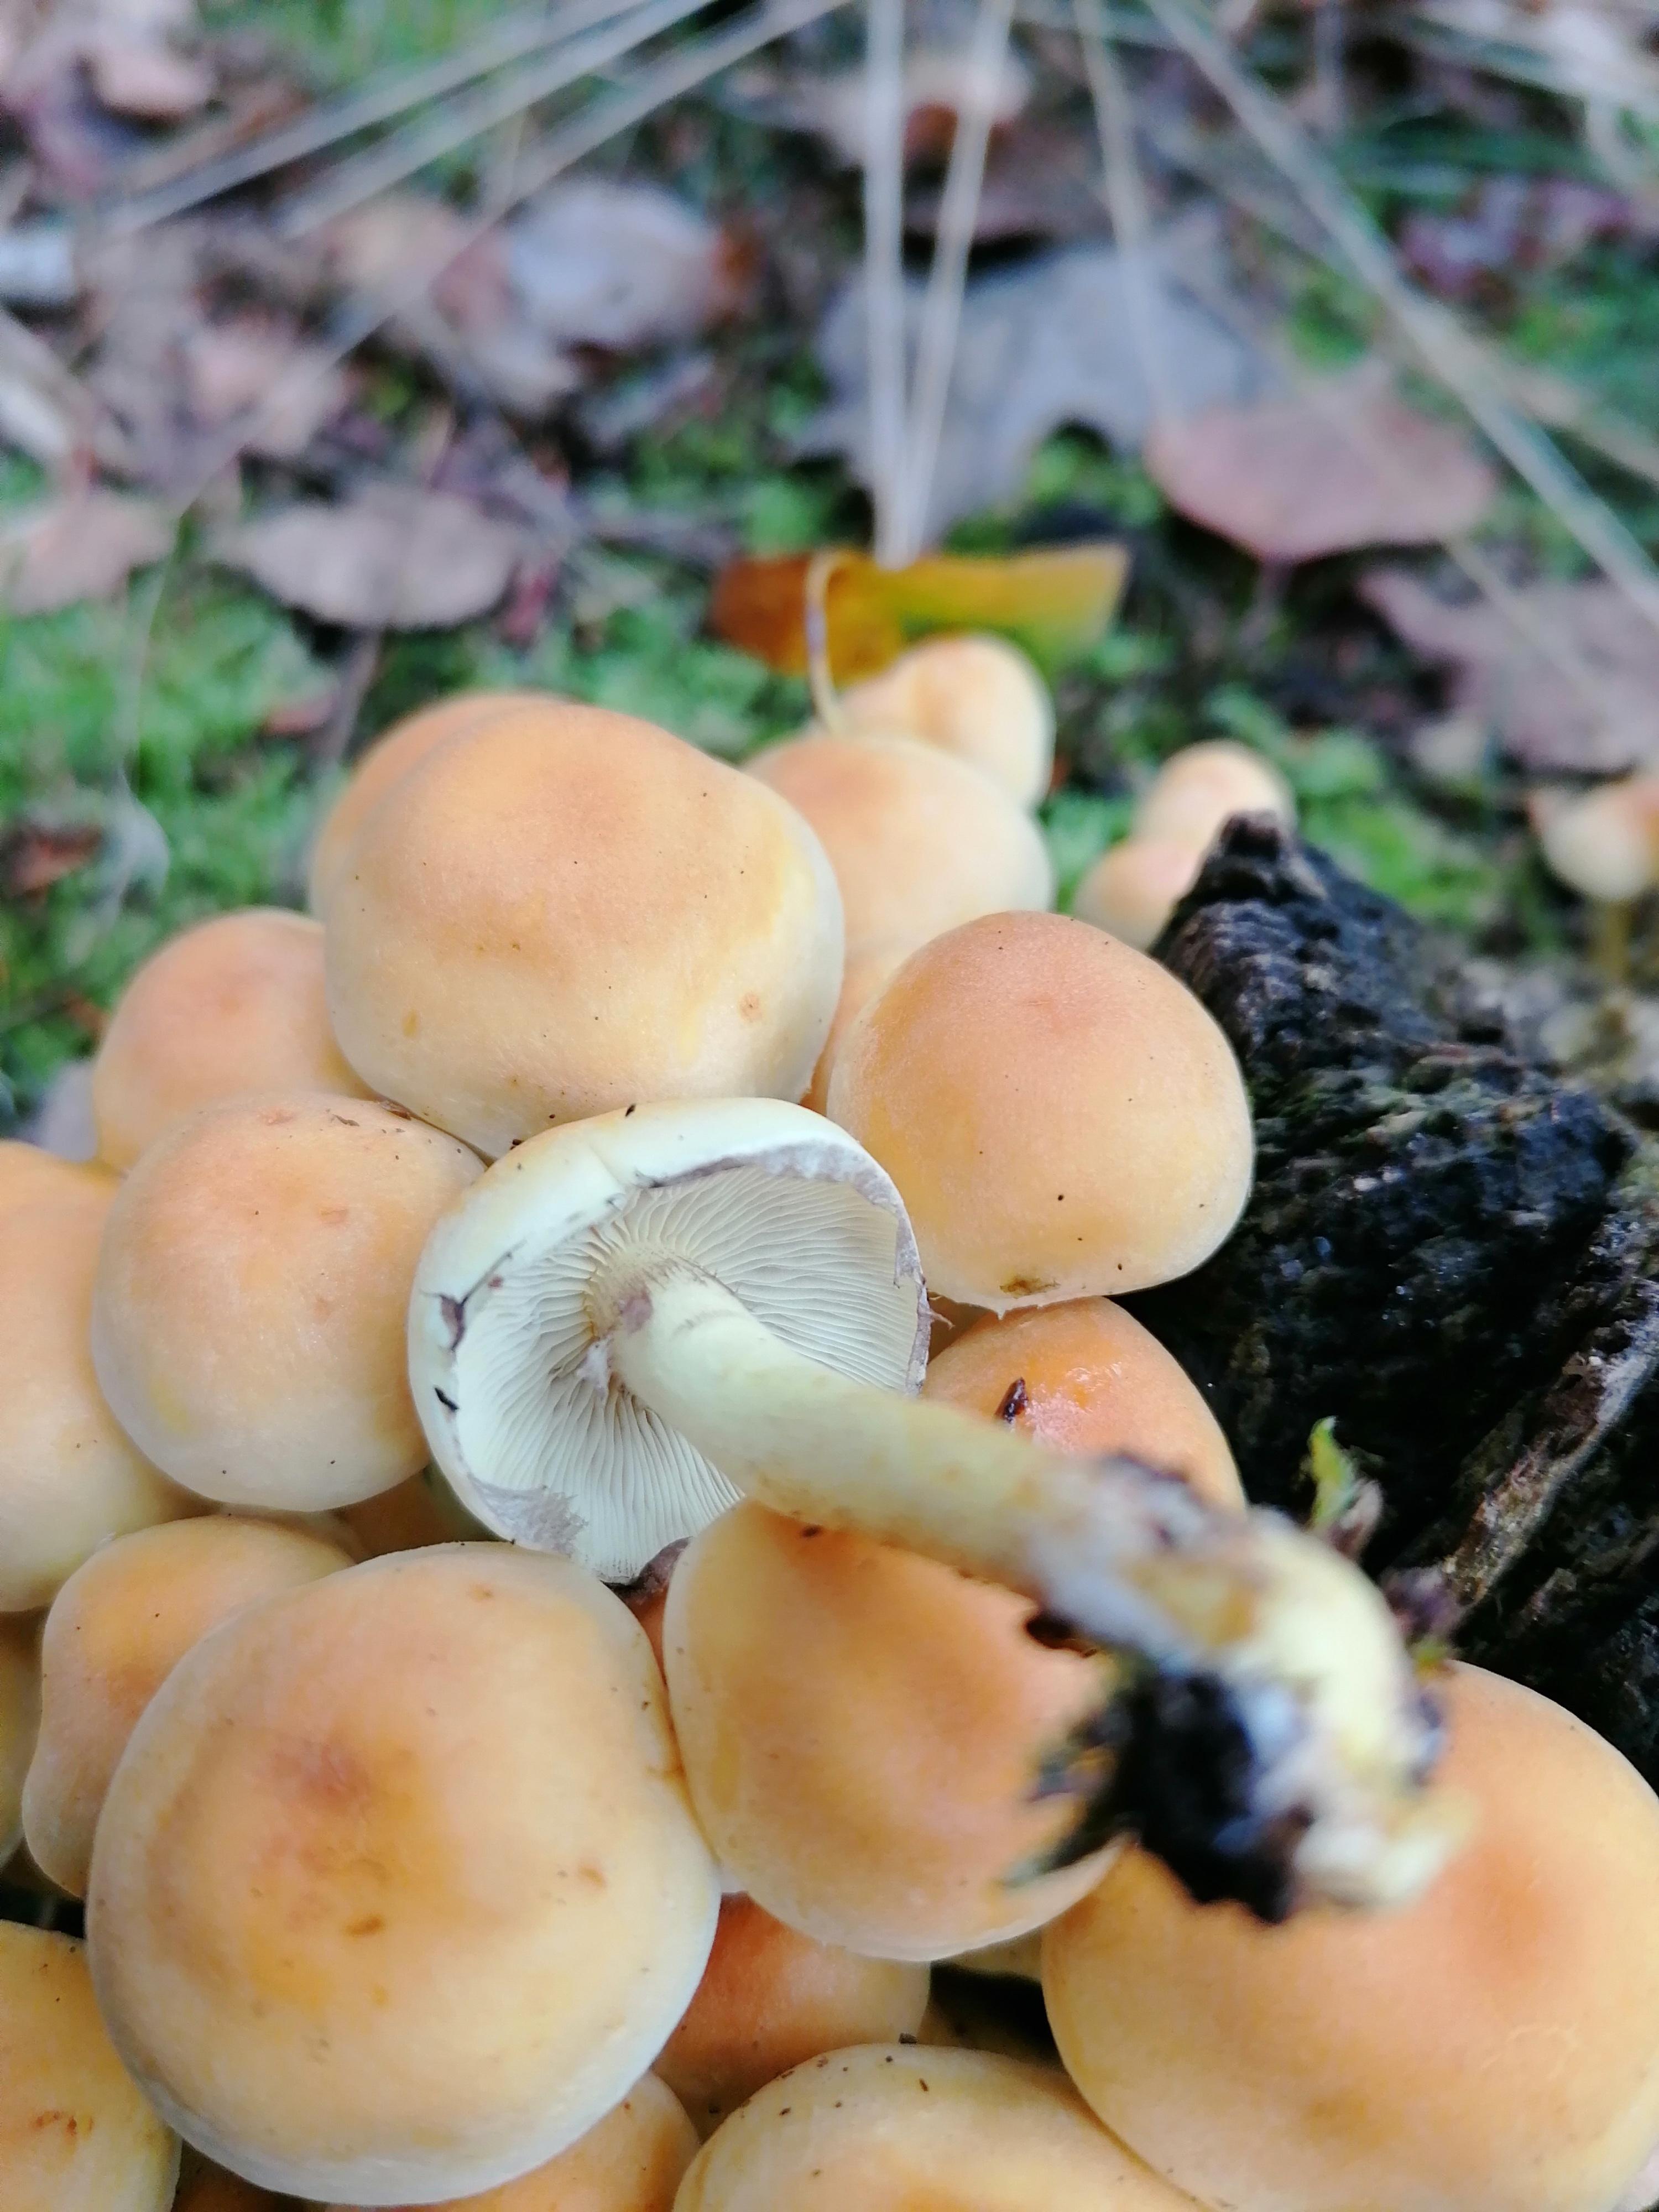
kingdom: Fungi
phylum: Basidiomycota
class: Agaricomycetes
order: Agaricales
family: Strophariaceae
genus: Hypholoma
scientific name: Hypholoma fasciculare
